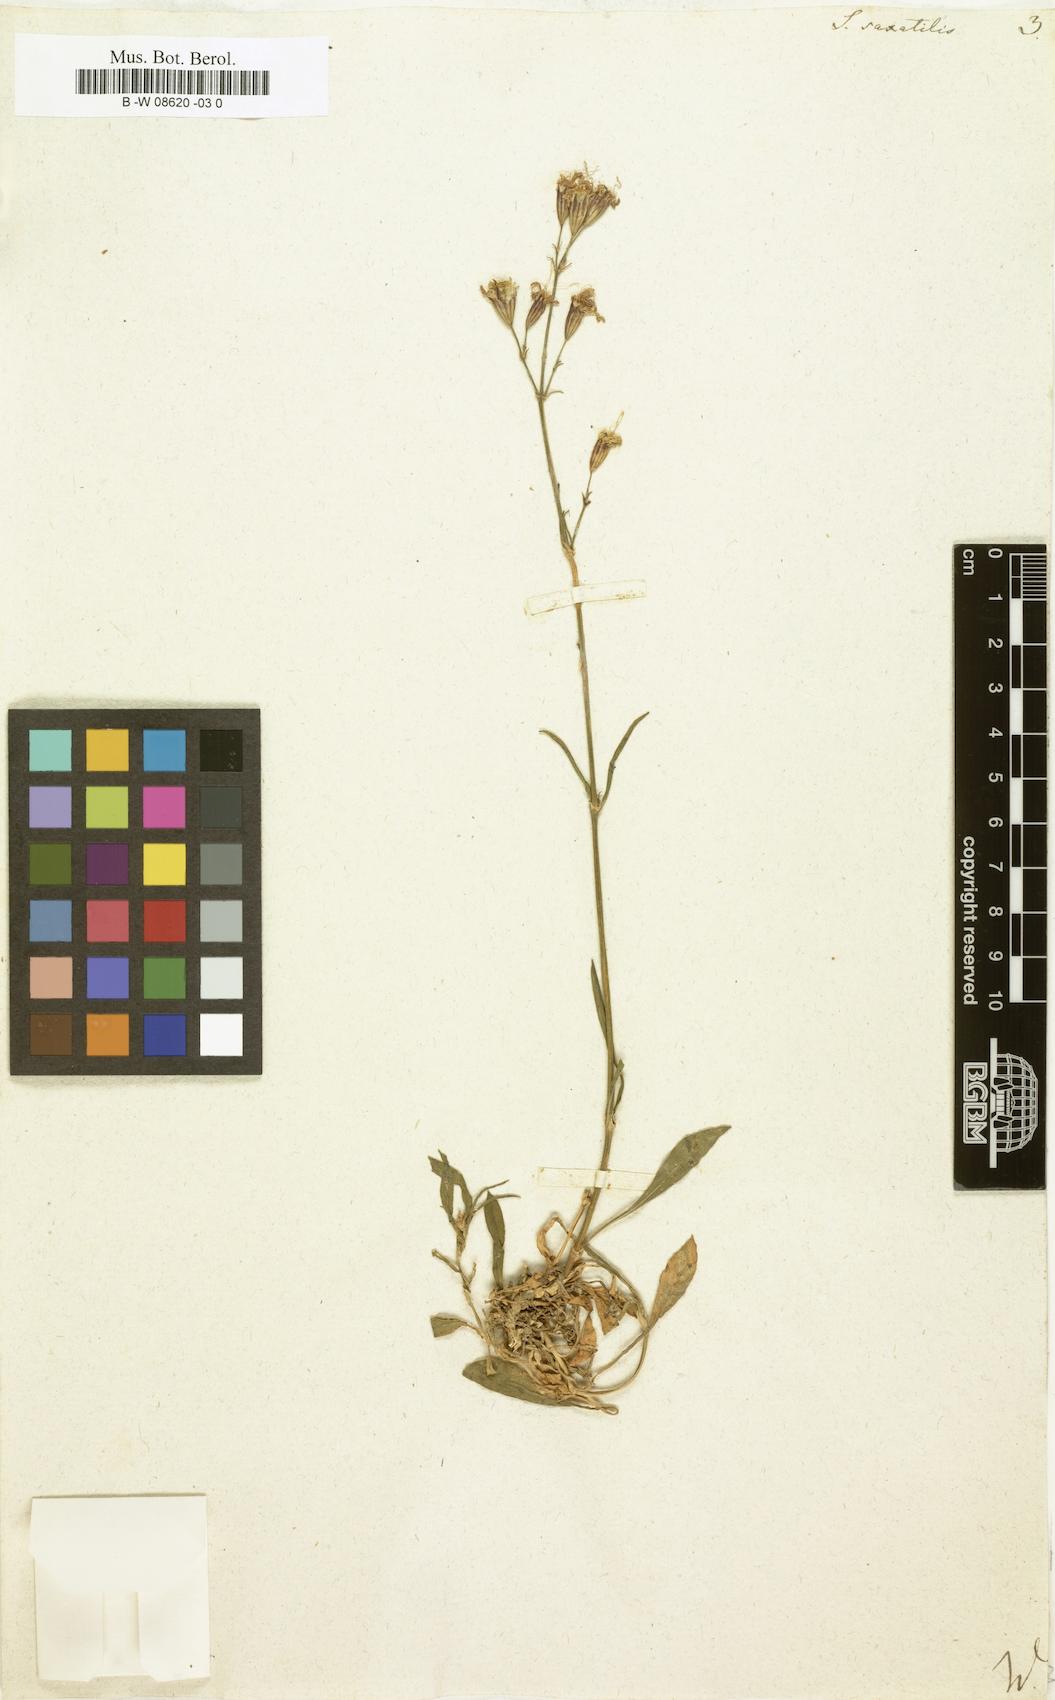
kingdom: Plantae
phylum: Tracheophyta
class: Magnoliopsida
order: Caryophyllales
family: Caryophyllaceae
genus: Silene
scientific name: Silene saxatilis
